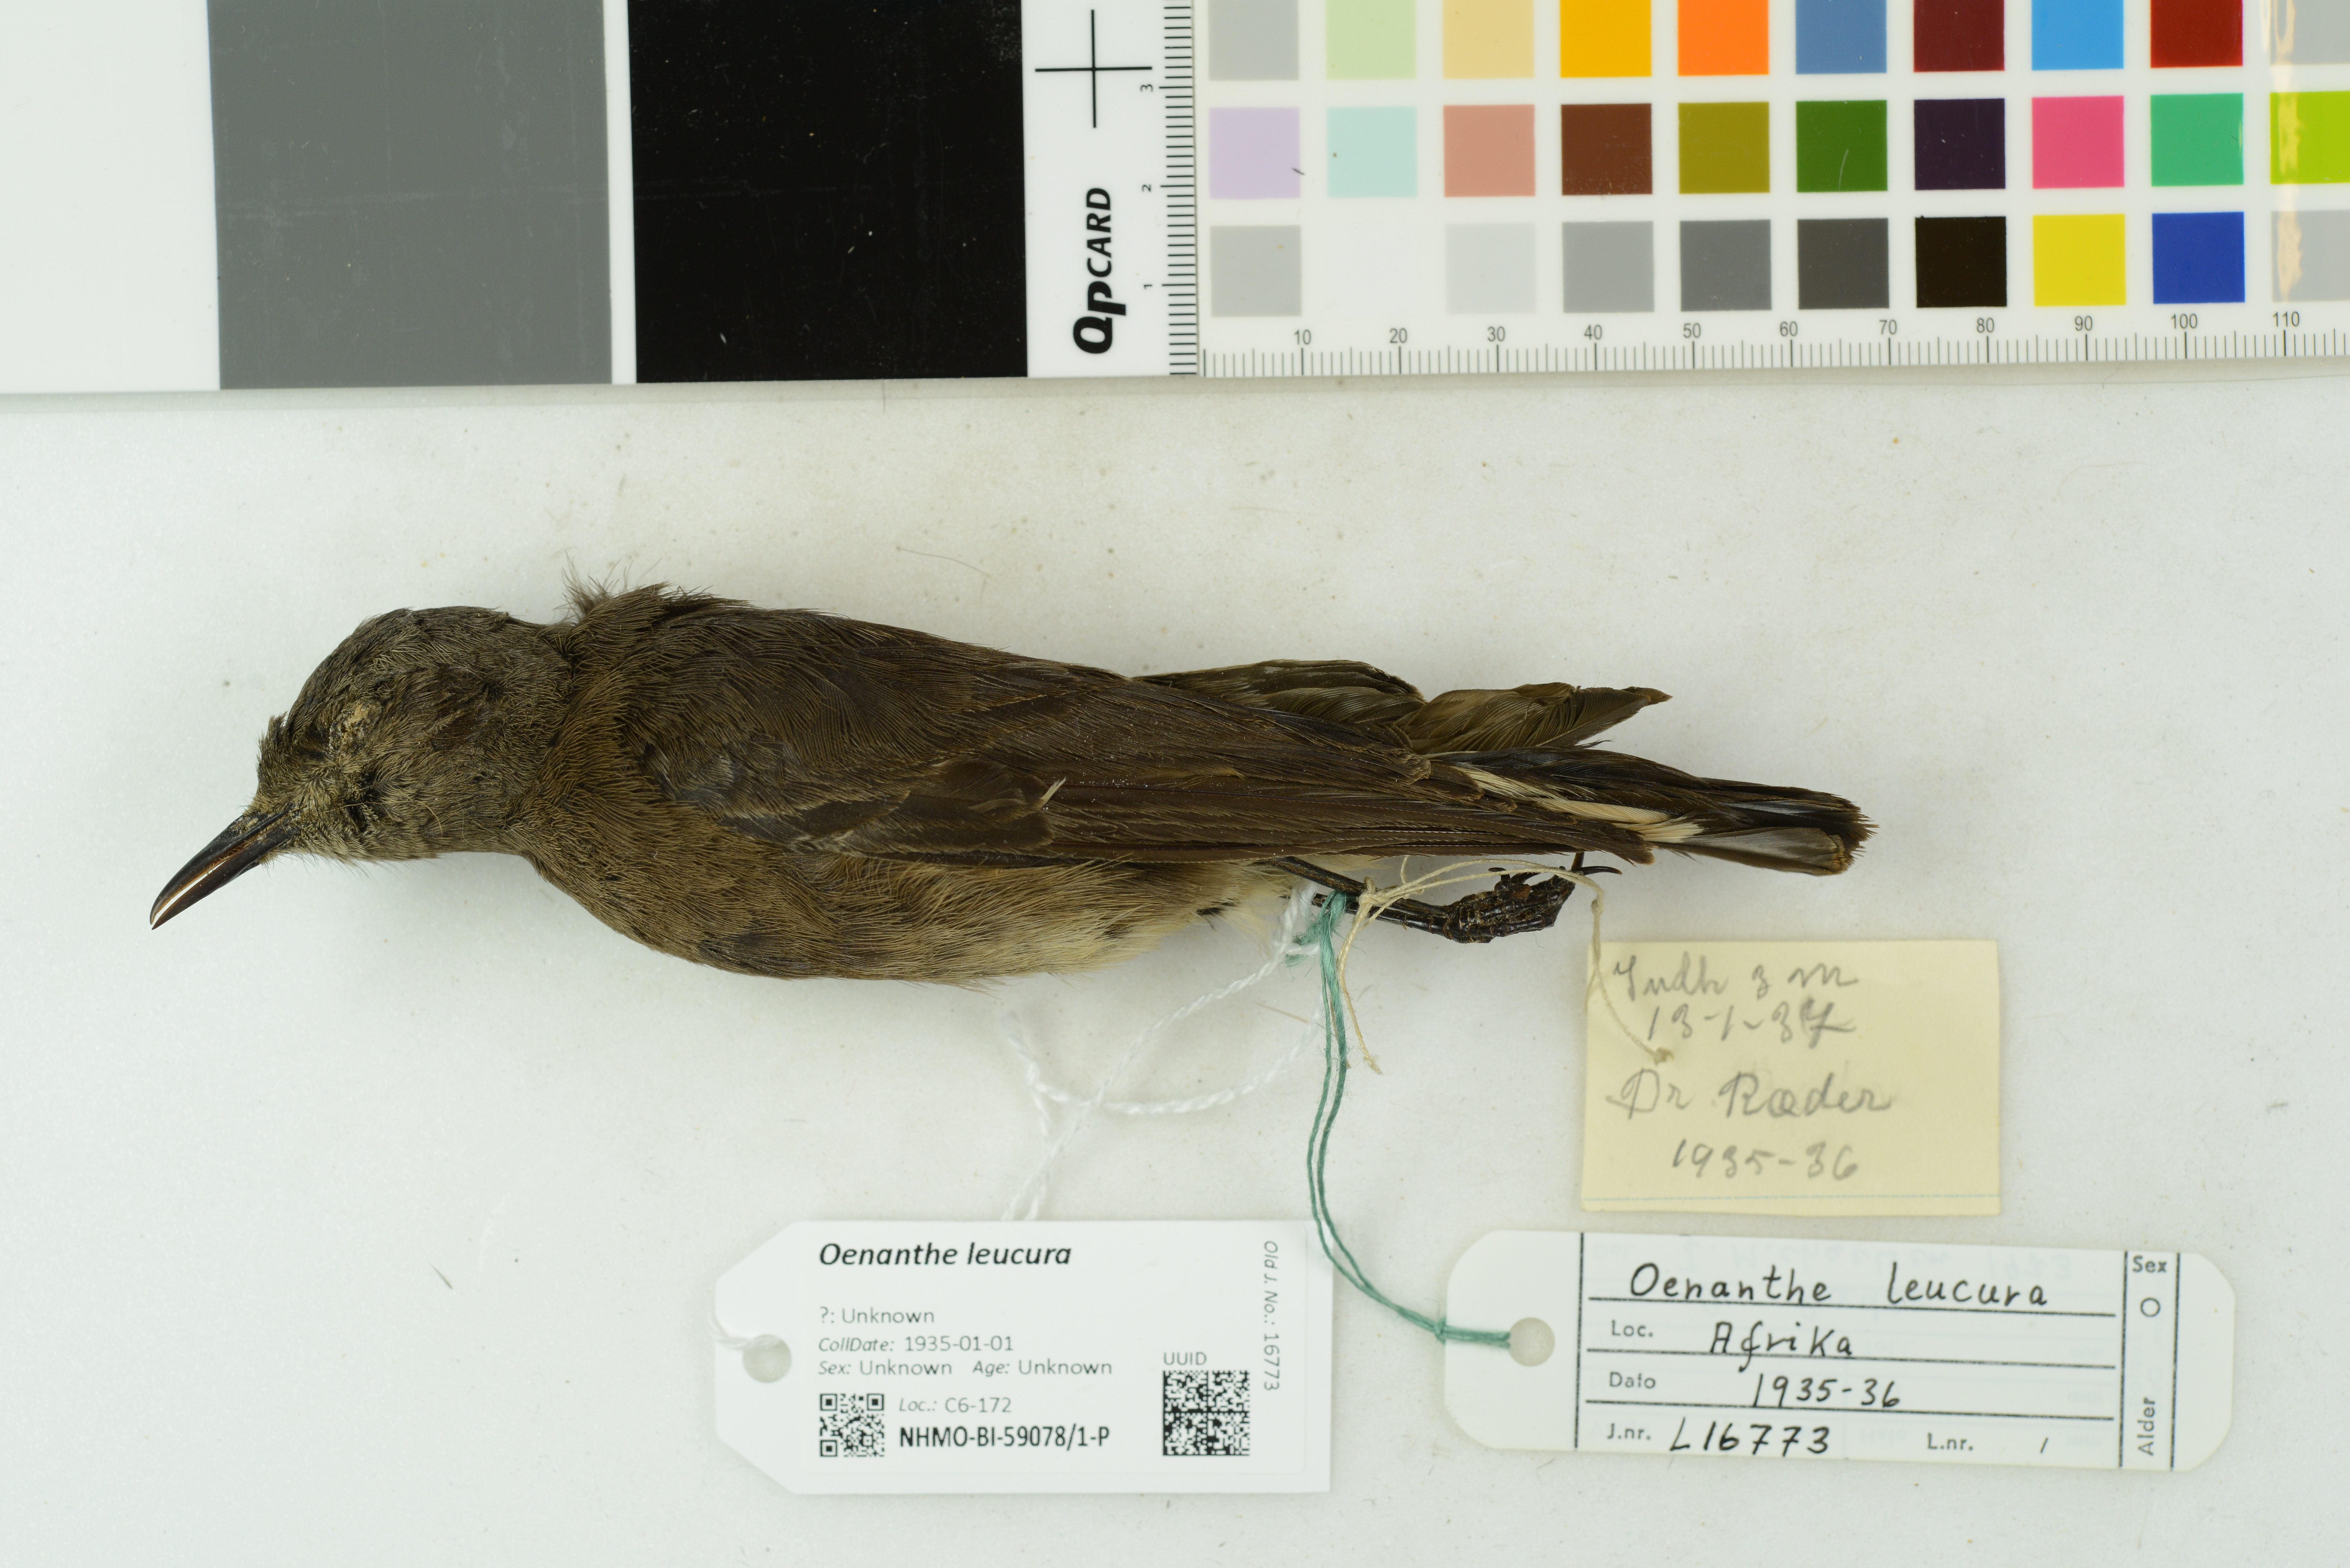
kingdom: Animalia
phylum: Chordata
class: Aves
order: Passeriformes
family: Muscicapidae
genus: Oenanthe
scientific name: Oenanthe leucura
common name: Black wheatear
